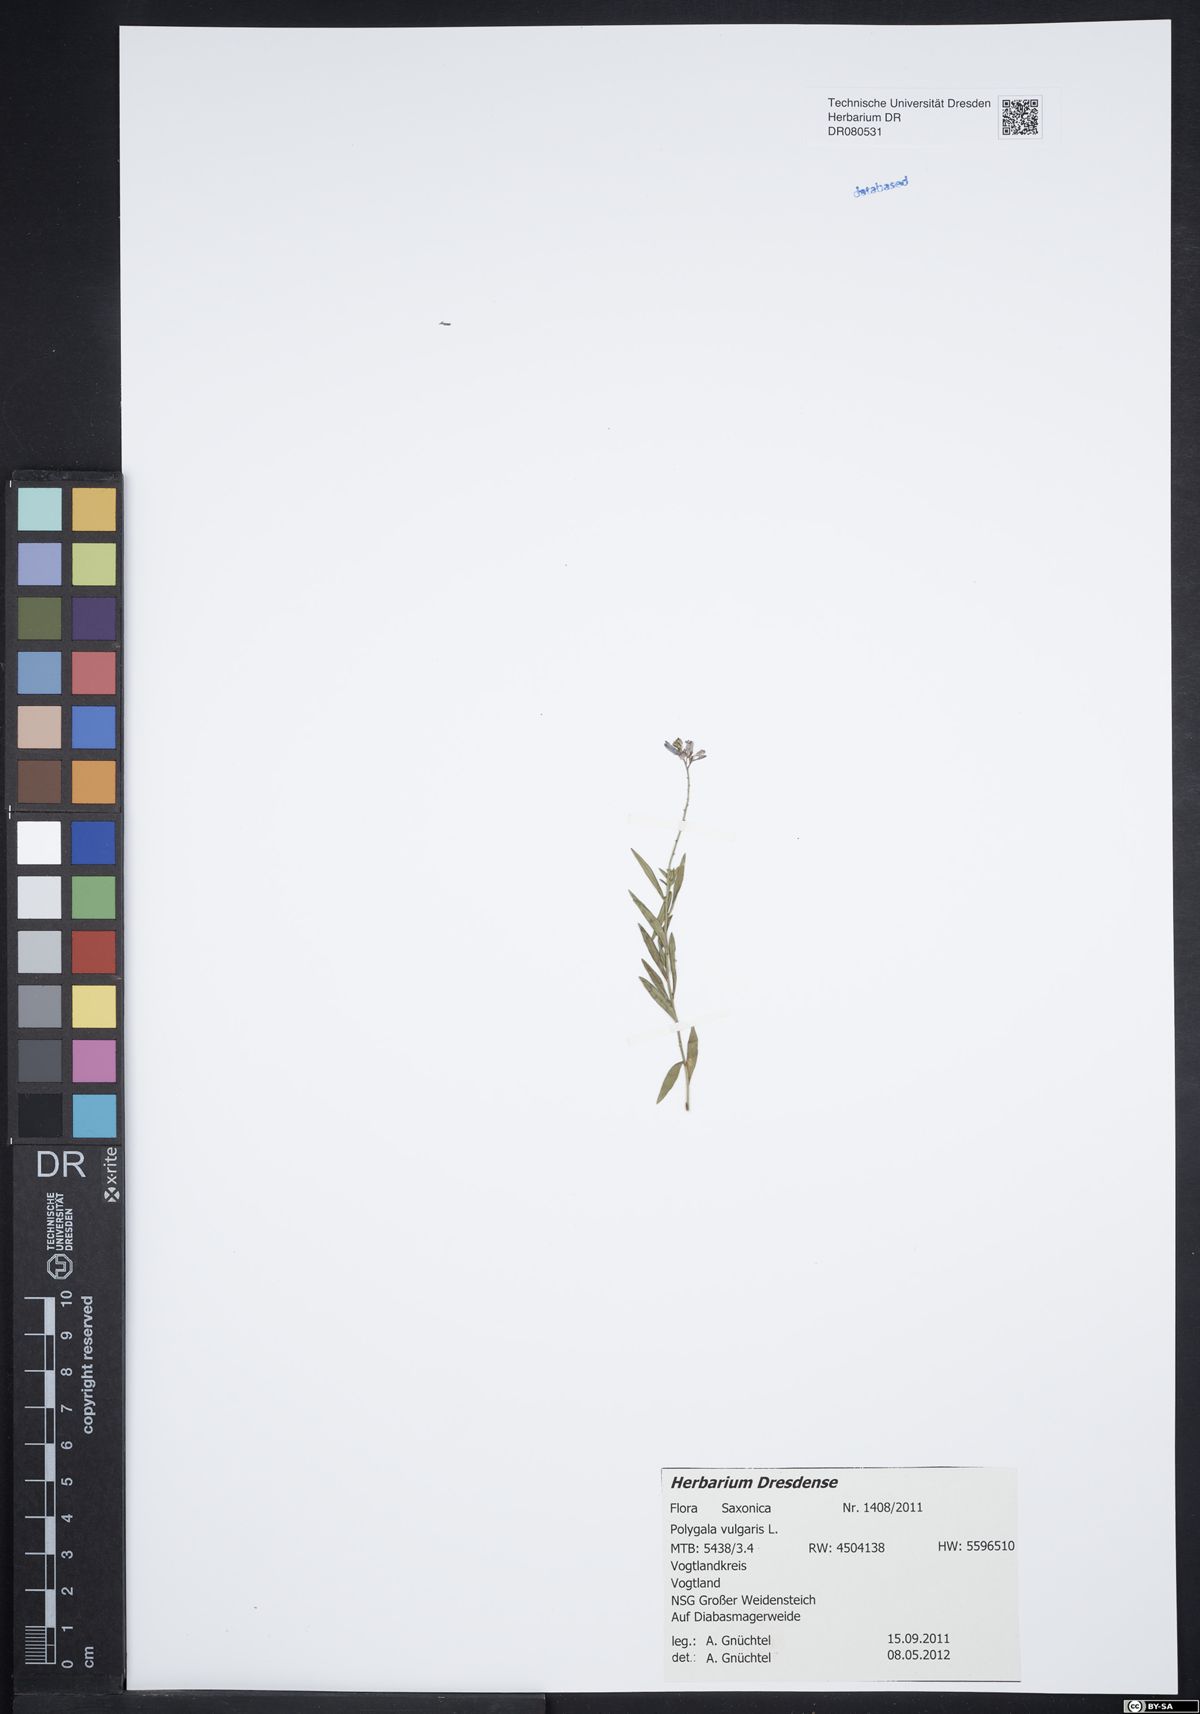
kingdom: Plantae
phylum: Tracheophyta
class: Magnoliopsida
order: Fabales
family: Polygalaceae
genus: Polygala
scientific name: Polygala vulgaris
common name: Common milkwort
